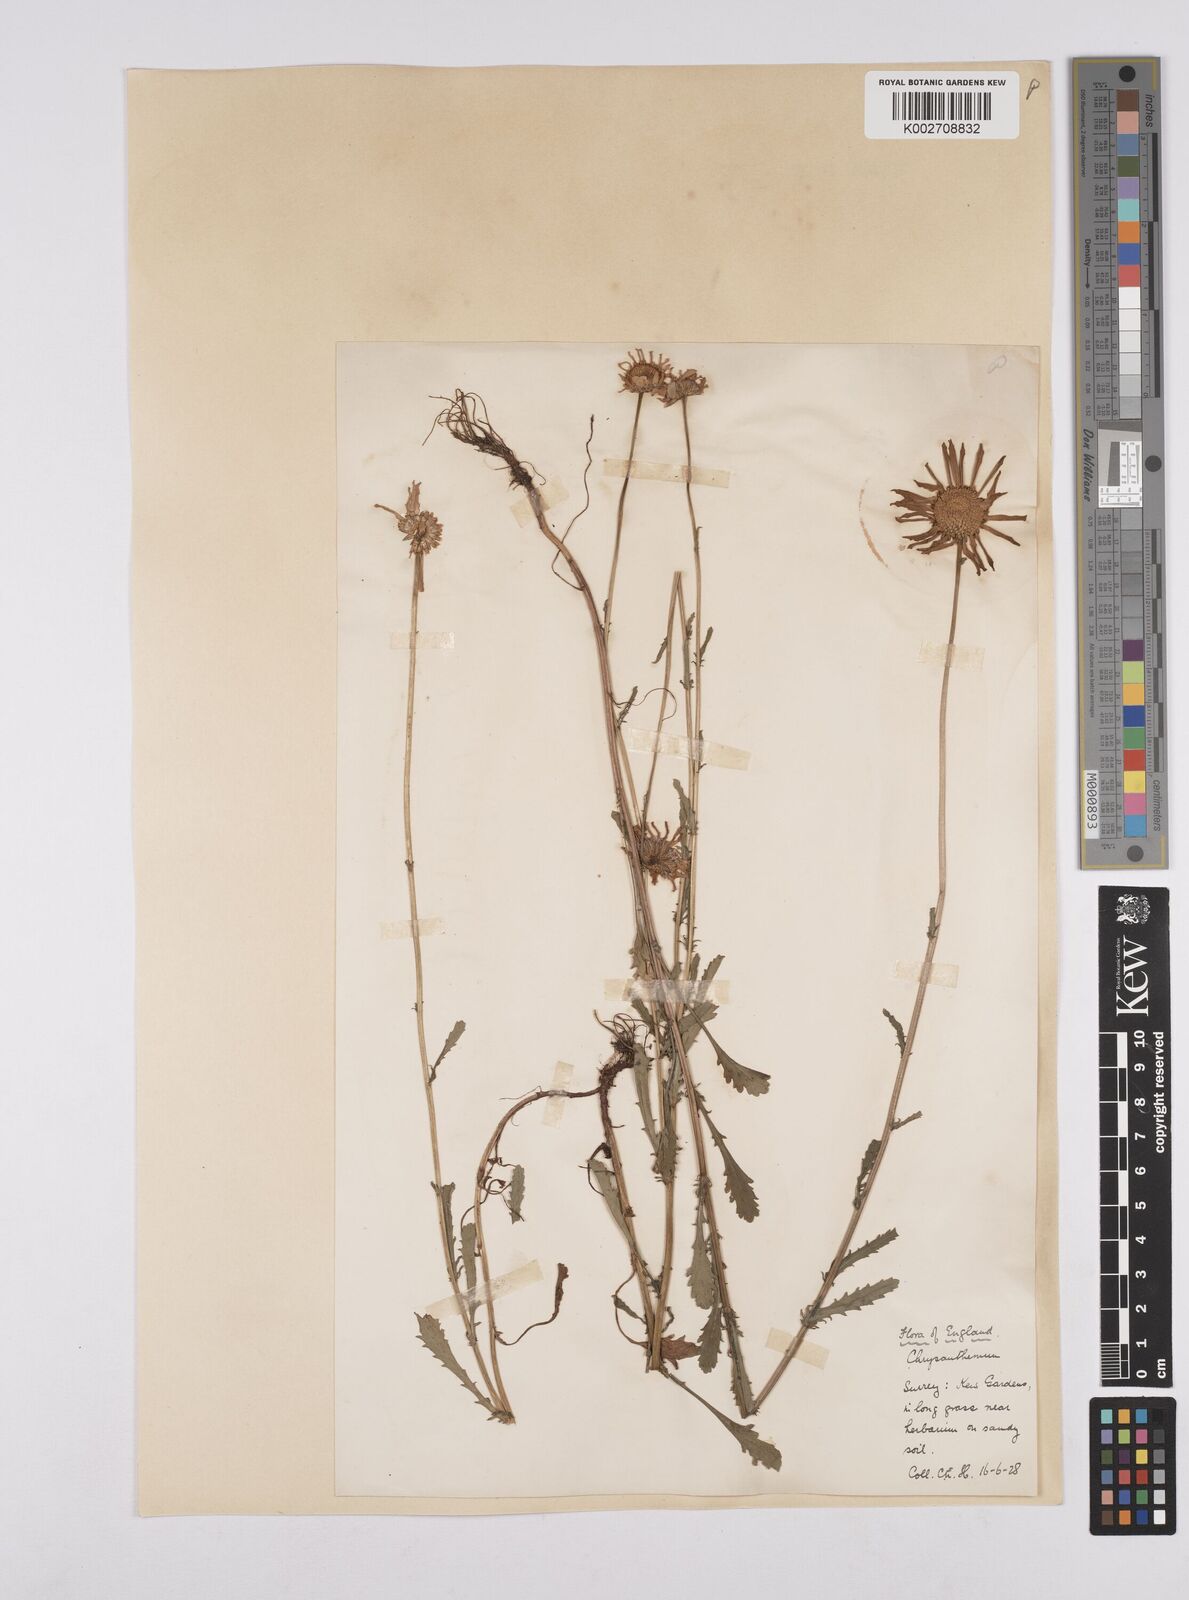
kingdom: Plantae
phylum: Tracheophyta
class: Magnoliopsida
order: Asterales
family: Asteraceae
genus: Leucanthemum
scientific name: Leucanthemum
